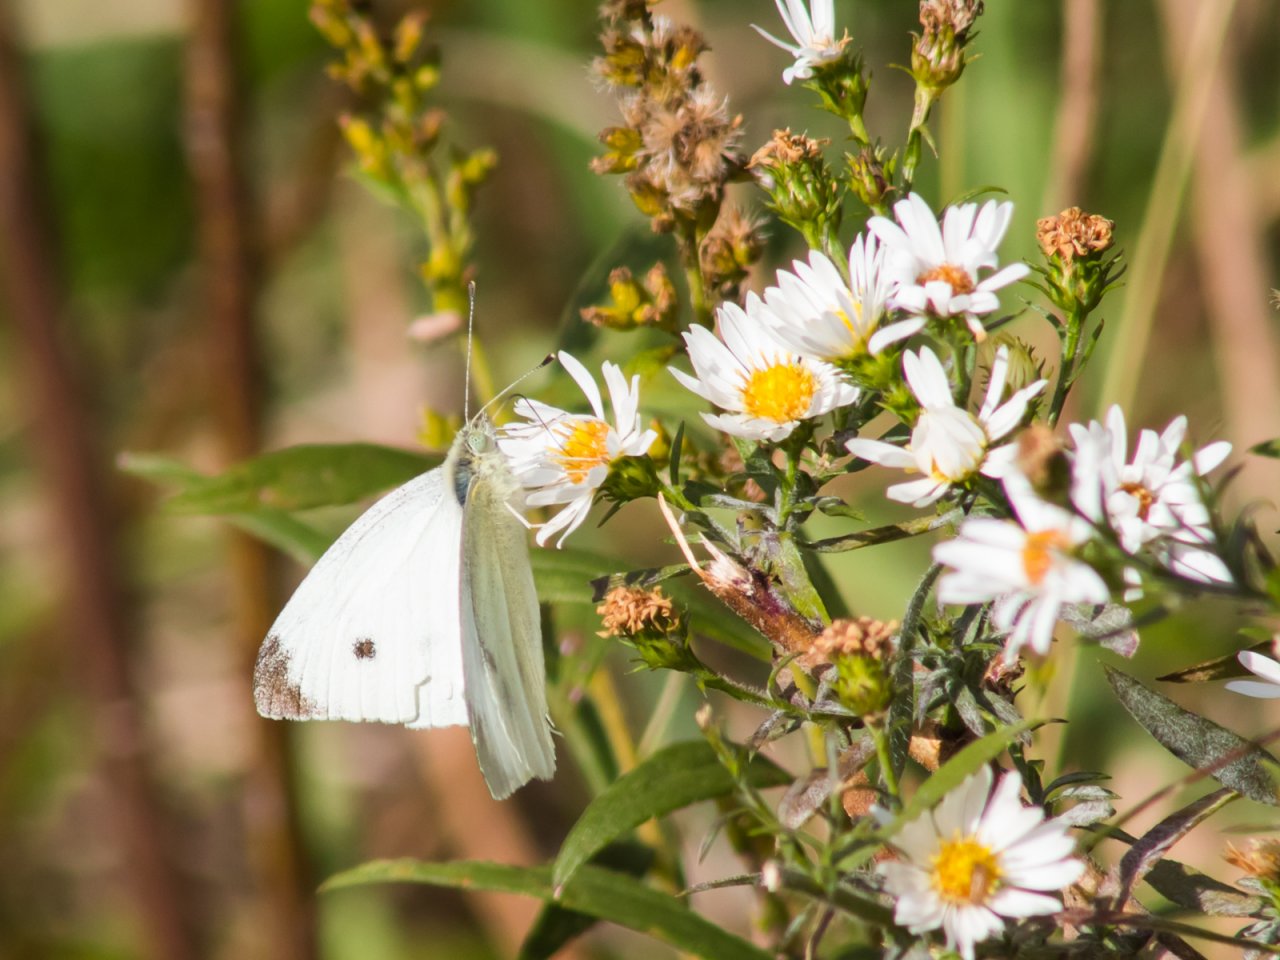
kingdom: Animalia
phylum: Arthropoda
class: Insecta
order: Lepidoptera
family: Pieridae
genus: Pieris
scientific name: Pieris rapae
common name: Cabbage White
